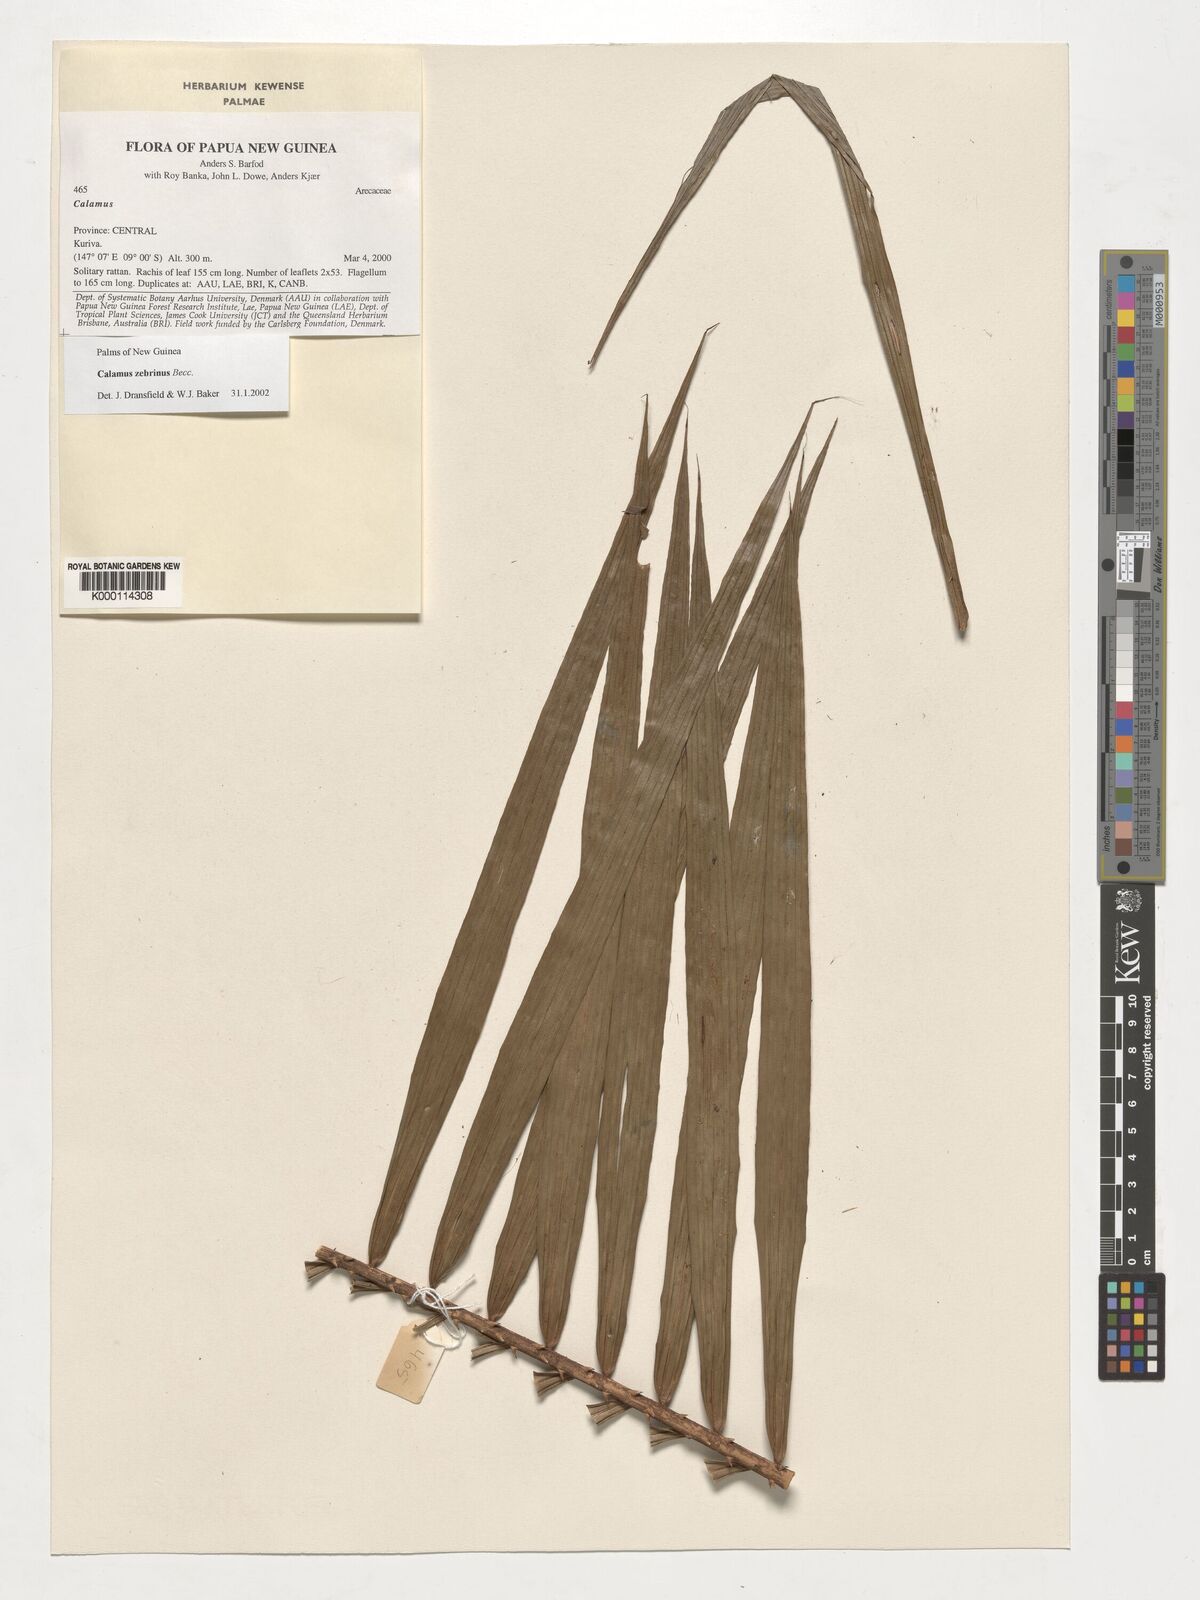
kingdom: Plantae
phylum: Tracheophyta
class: Liliopsida
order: Arecales
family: Arecaceae
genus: Calamus
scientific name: Calamus zebrinus
